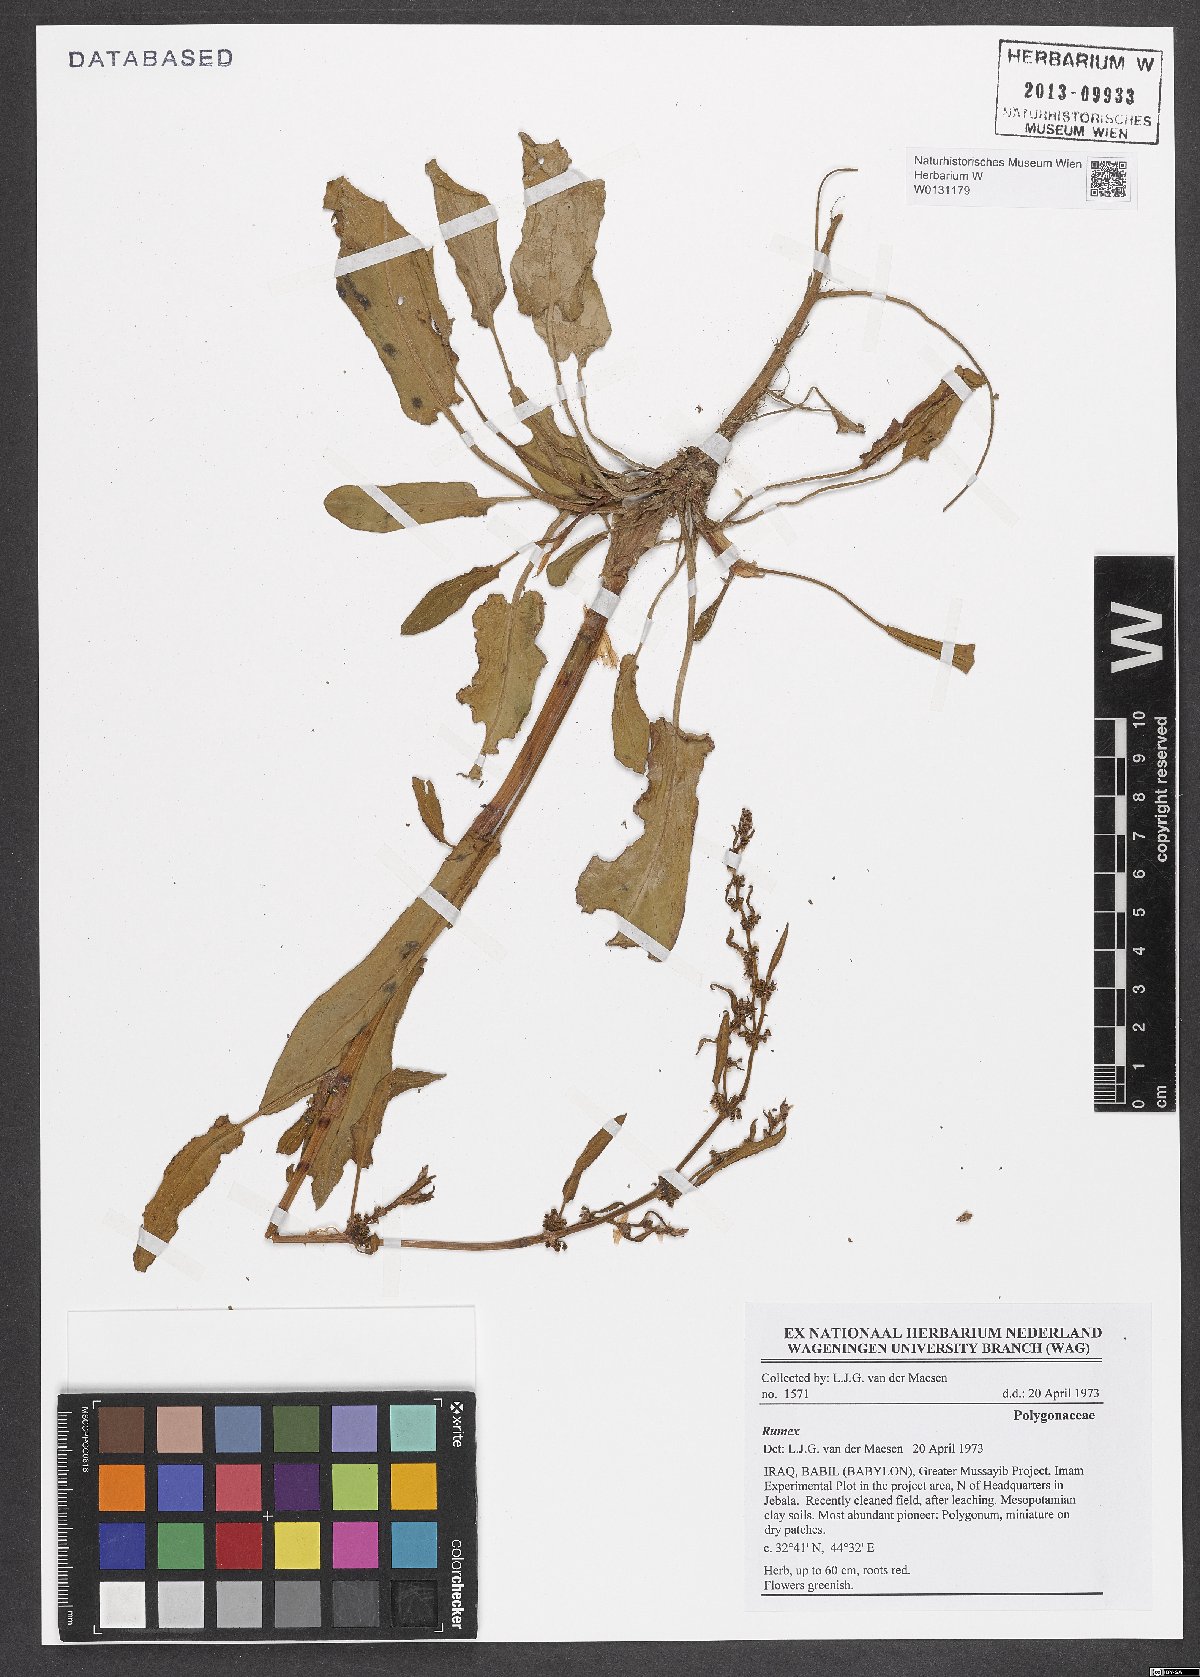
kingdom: Plantae
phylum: Tracheophyta
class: Magnoliopsida
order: Caryophyllales
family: Polygonaceae
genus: Rumex
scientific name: Rumex
